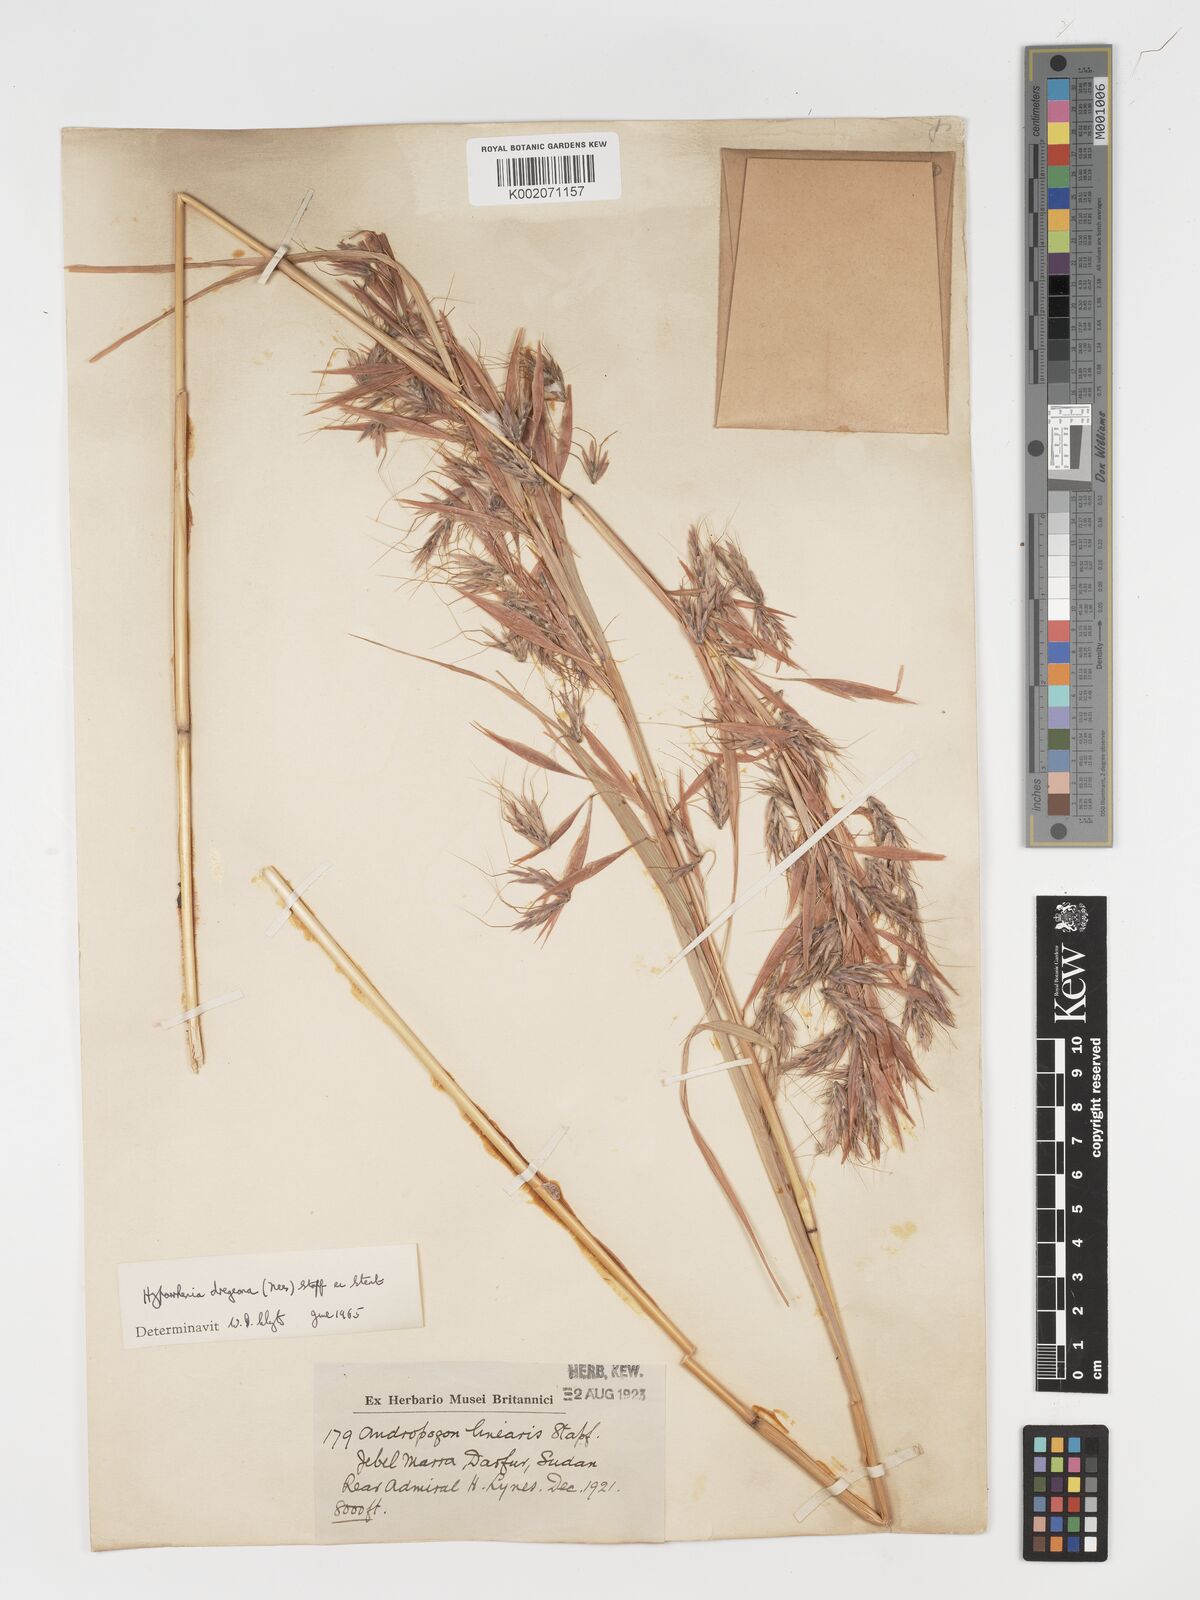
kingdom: Plantae
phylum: Tracheophyta
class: Liliopsida
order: Poales
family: Poaceae
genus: Hyparrhenia
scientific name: Hyparrhenia dregeana
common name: Silky thatching grass
